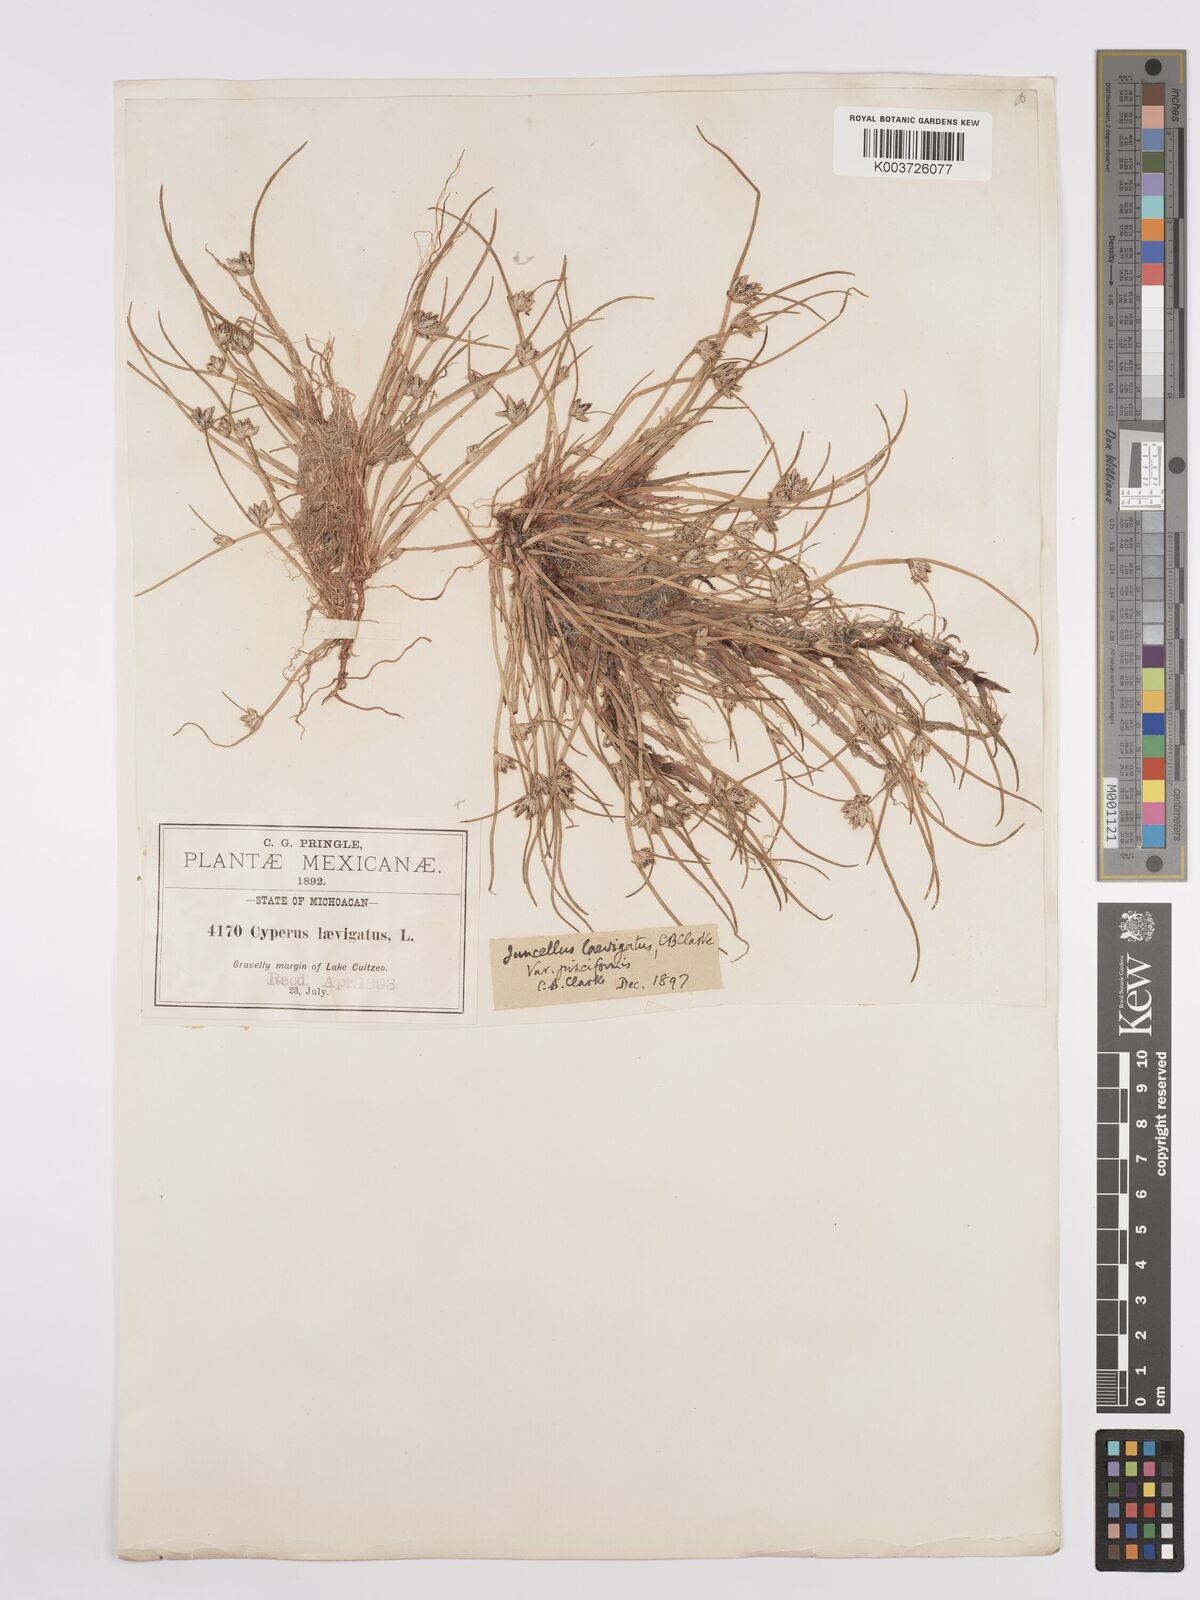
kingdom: Plantae
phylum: Tracheophyta
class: Liliopsida
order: Poales
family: Cyperaceae
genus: Cyperus
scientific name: Cyperus laevigatus
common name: Smooth flat sedge
